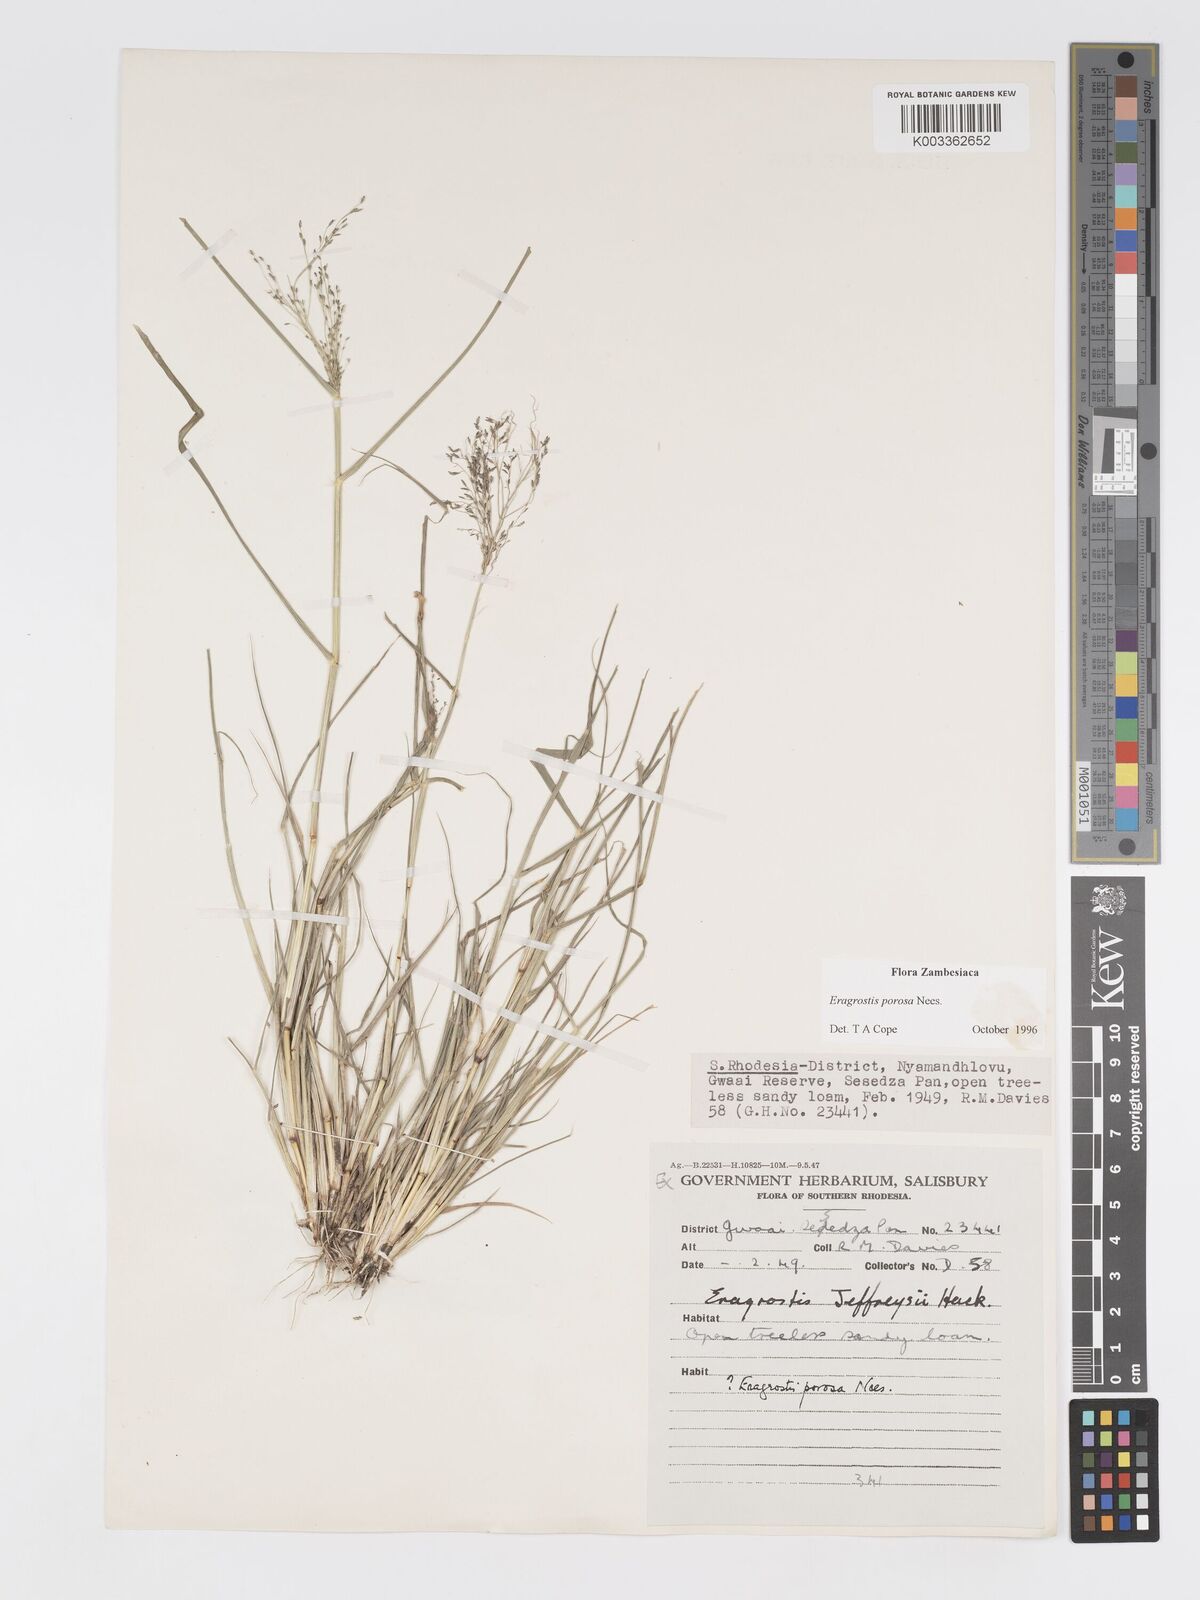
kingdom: Plantae
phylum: Tracheophyta
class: Liliopsida
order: Poales
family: Poaceae
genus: Eragrostis
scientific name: Eragrostis porosa
